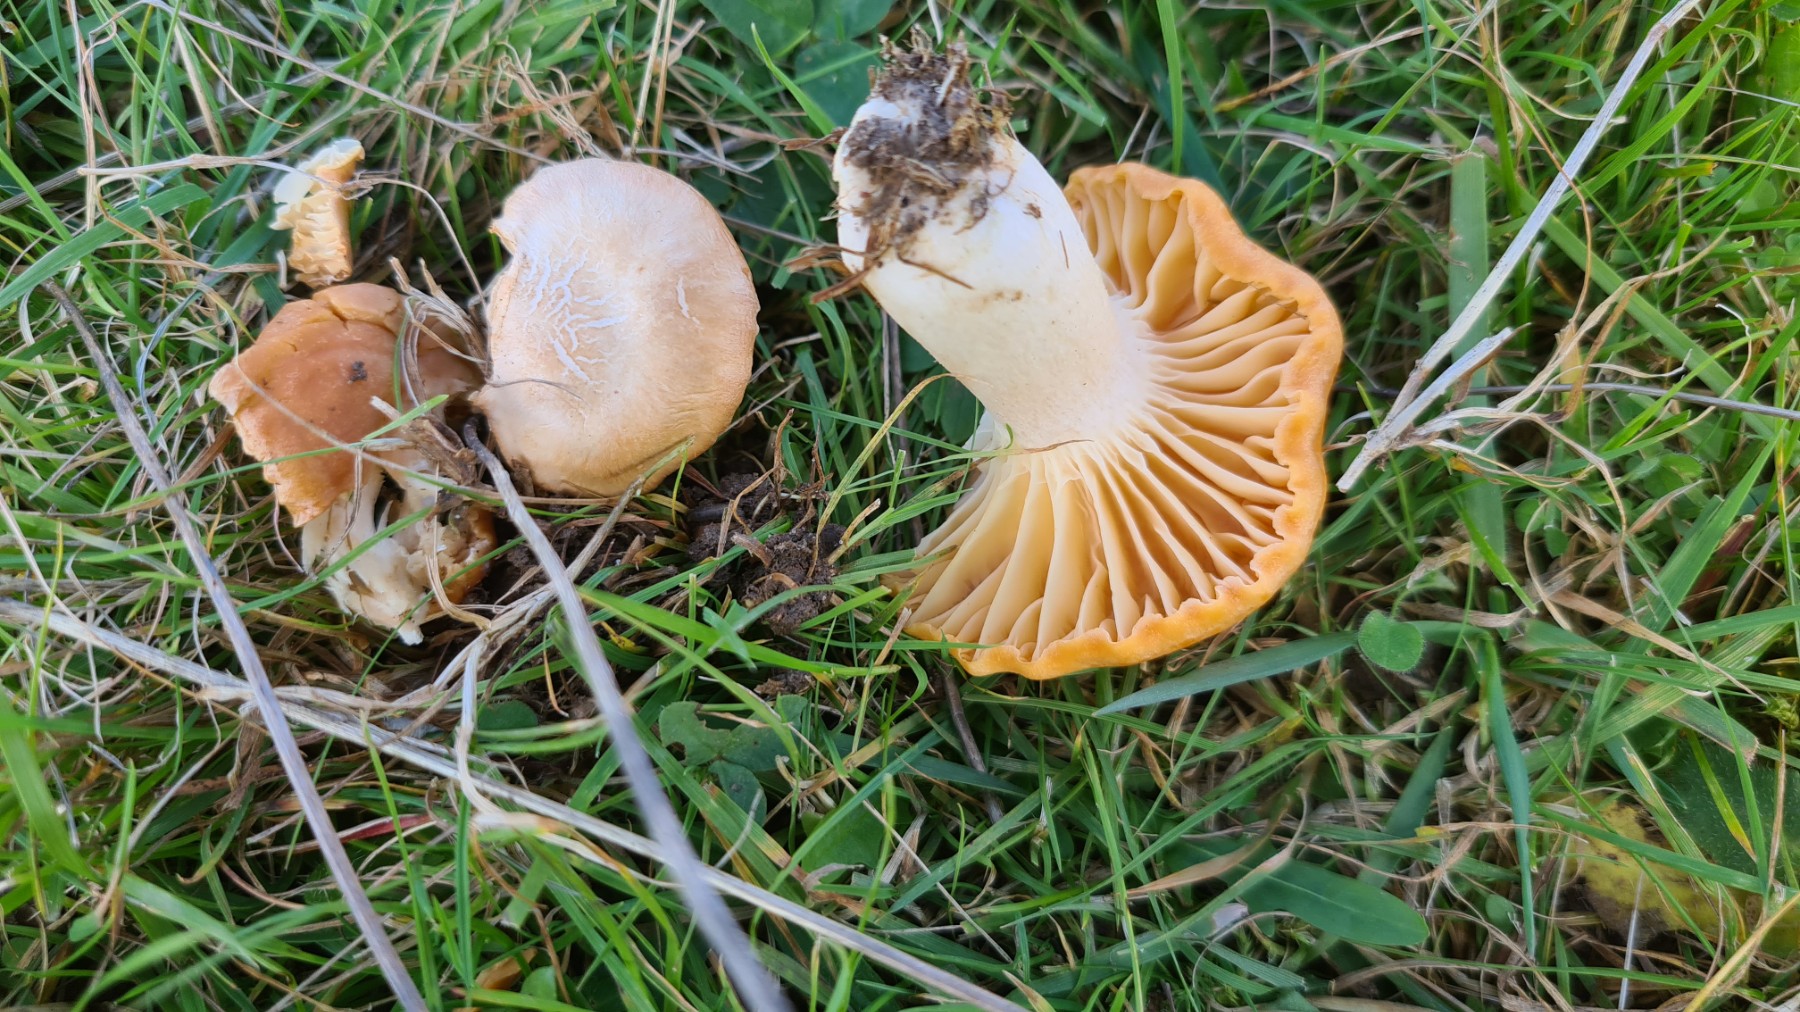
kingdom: Fungi
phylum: Basidiomycota
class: Agaricomycetes
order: Agaricales
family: Hygrophoraceae
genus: Cuphophyllus
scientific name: Cuphophyllus pratensis
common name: eng-vokshat
